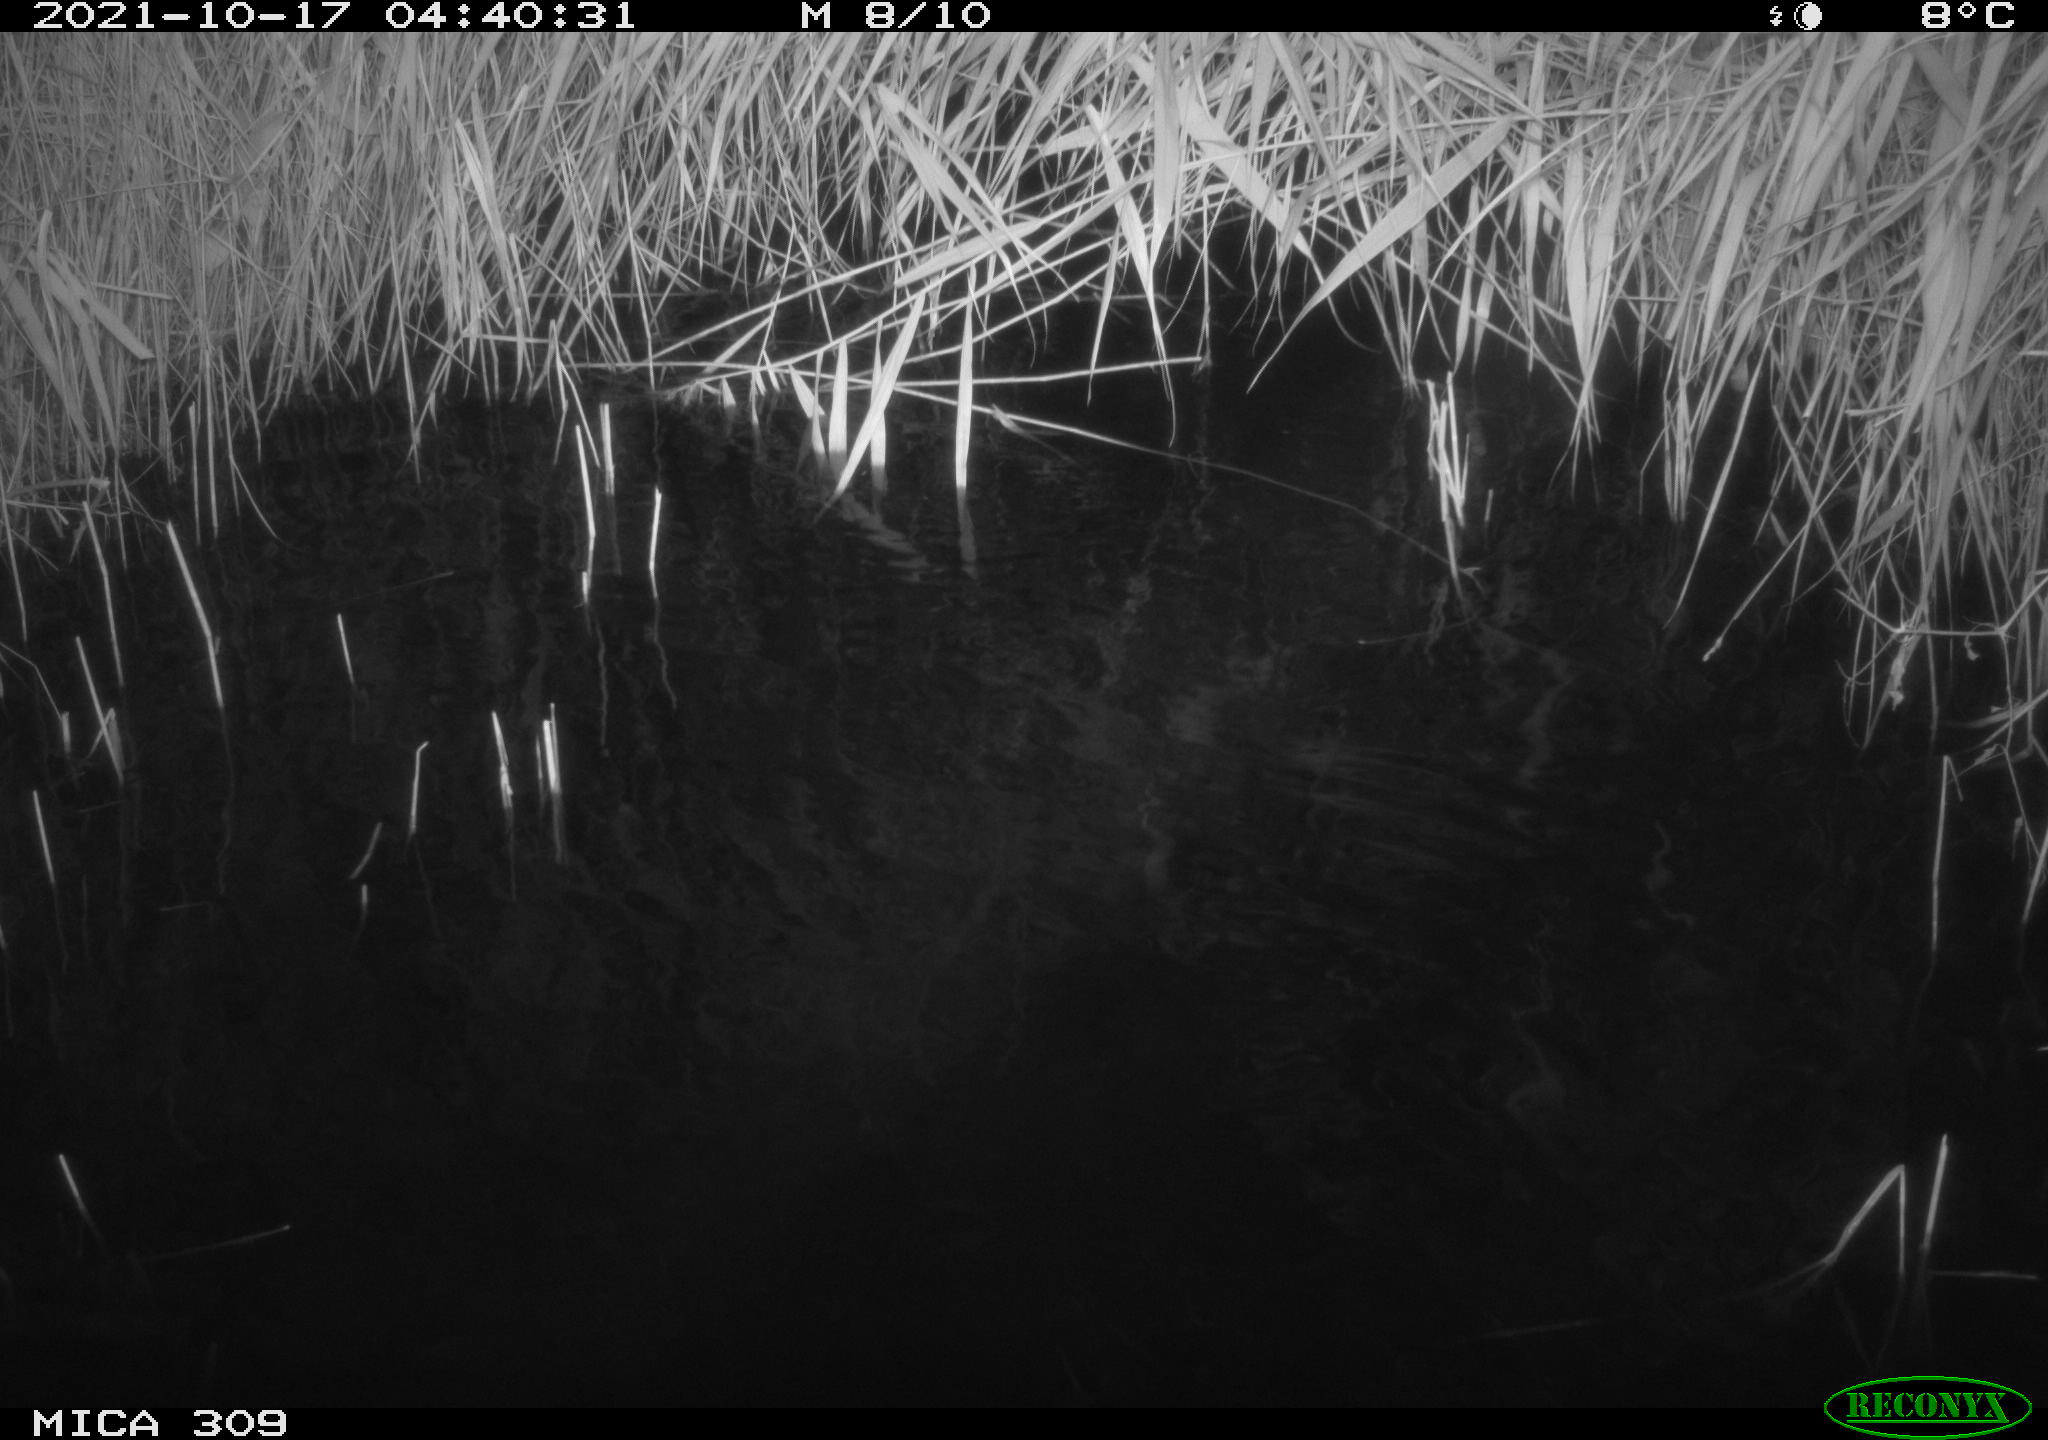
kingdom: Animalia
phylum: Chordata
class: Mammalia
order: Rodentia
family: Cricetidae
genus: Ondatra
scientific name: Ondatra zibethicus
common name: Muskrat
